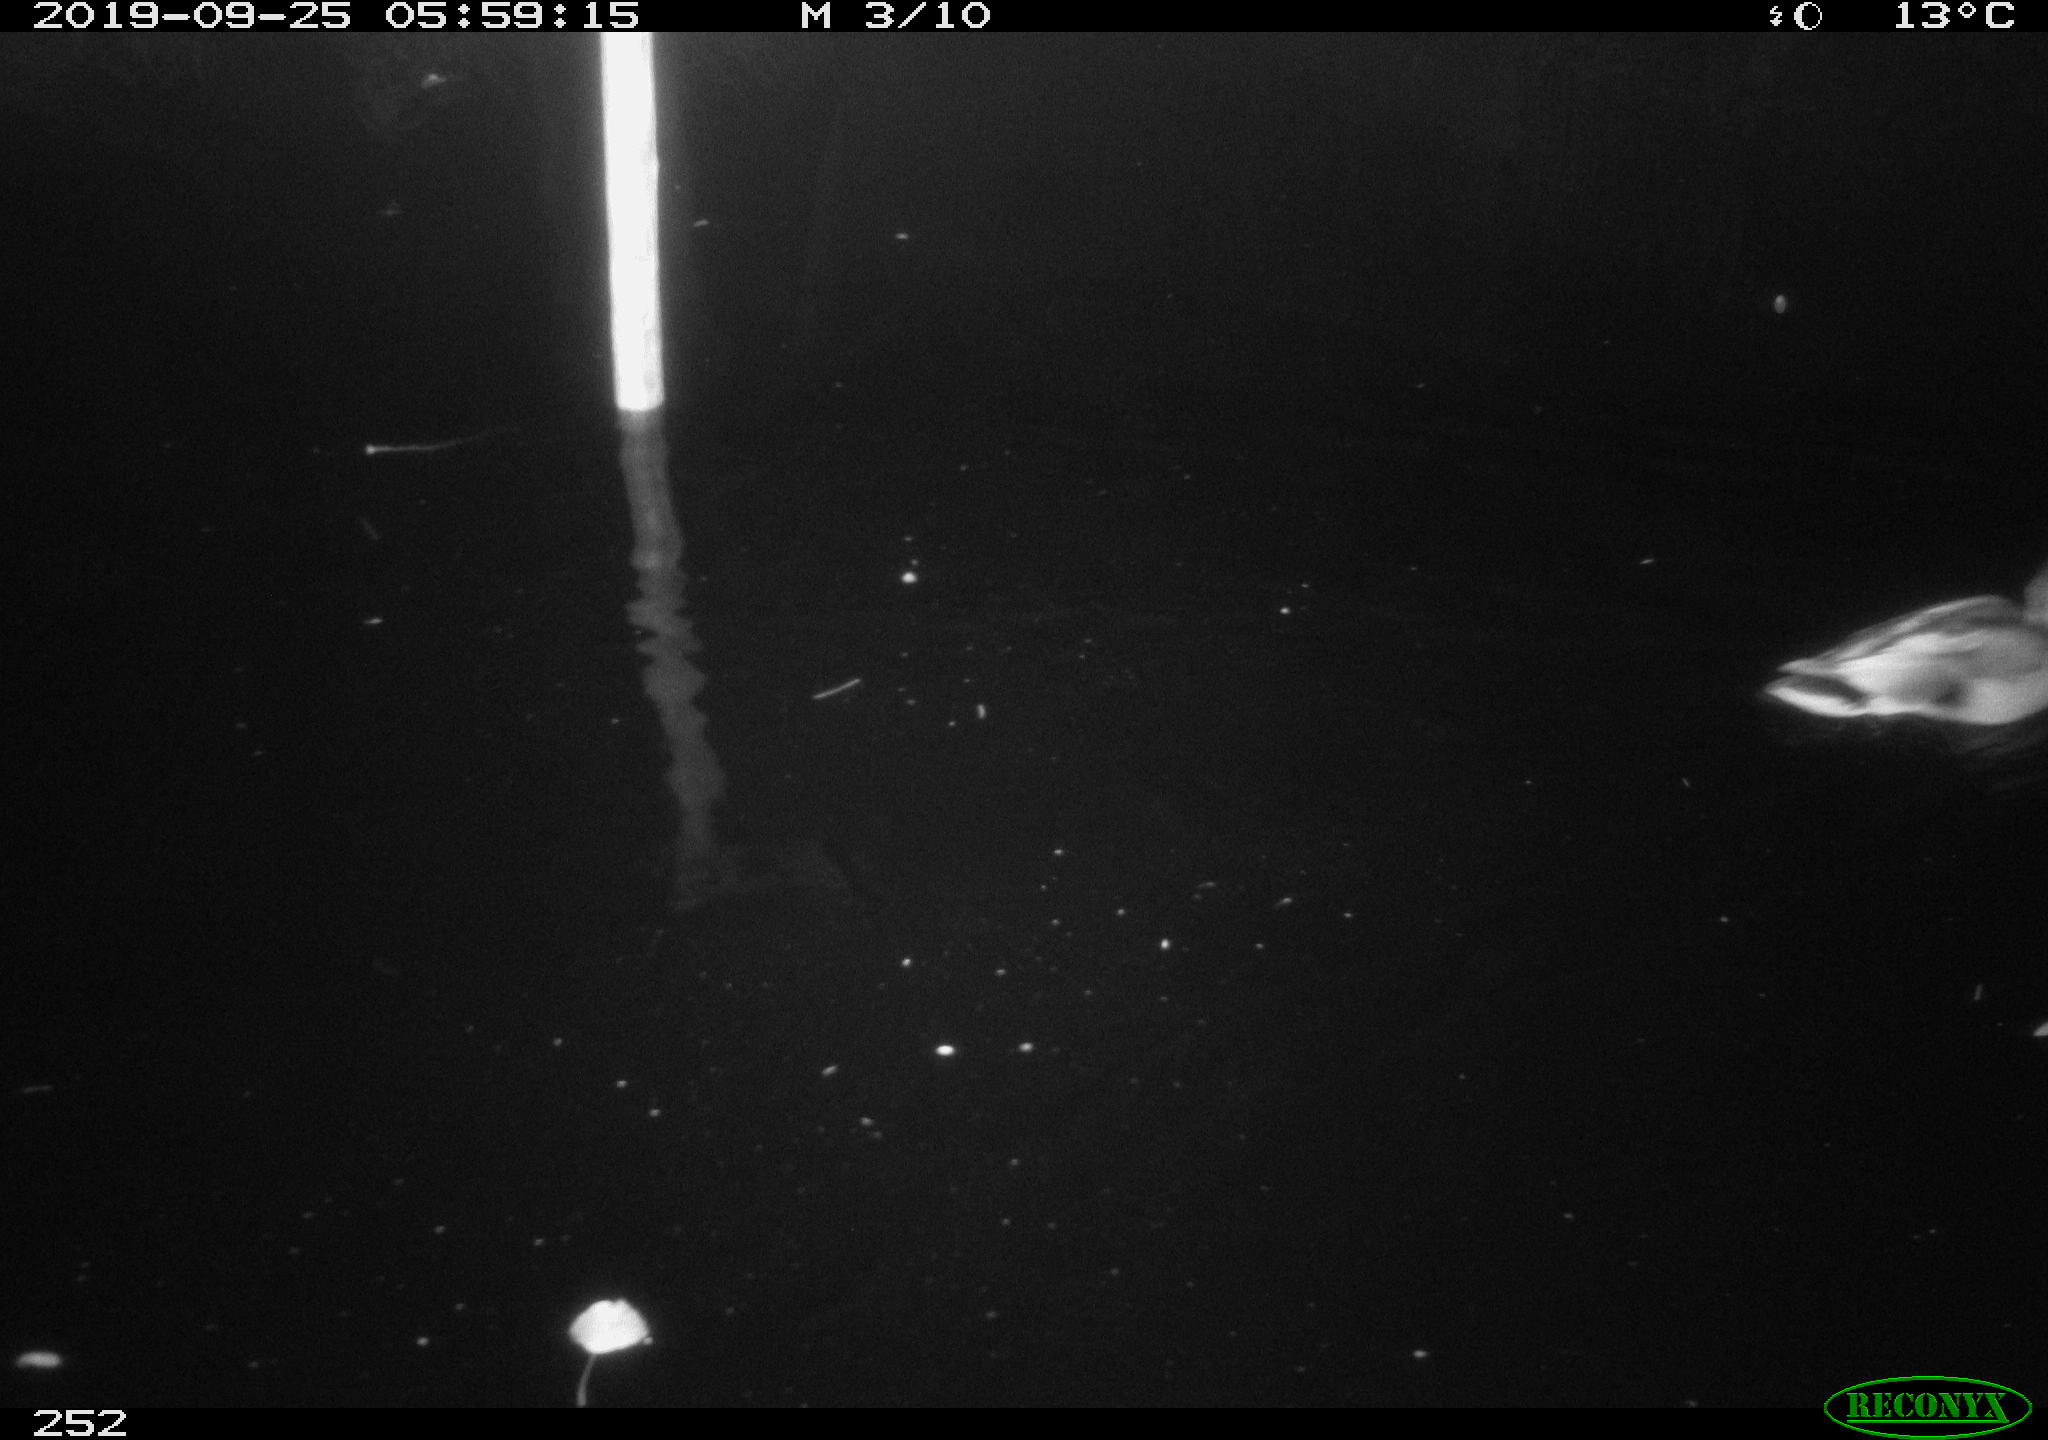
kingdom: Animalia
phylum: Chordata
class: Aves
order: Anseriformes
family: Anatidae
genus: Anas
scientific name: Anas platyrhynchos
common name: Mallard
